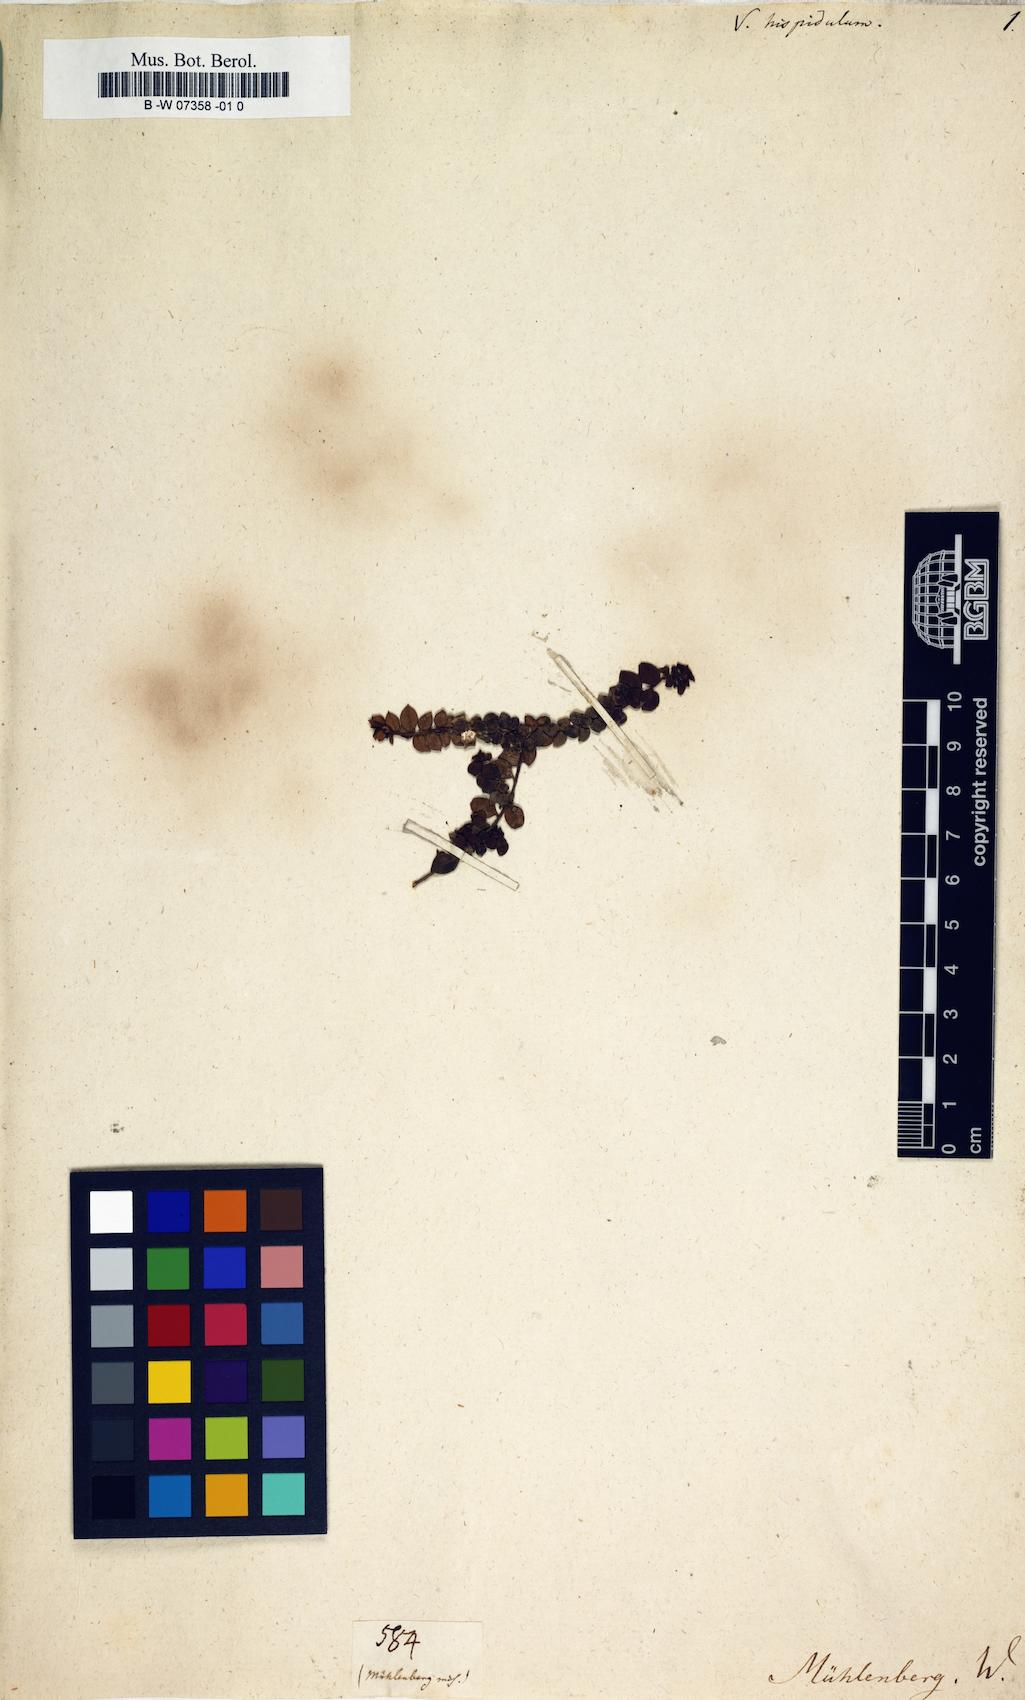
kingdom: Plantae
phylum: Tracheophyta
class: Magnoliopsida
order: Ericales
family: Ericaceae
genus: Gaultheria
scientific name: Gaultheria hispidula
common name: Cancer wintergreen
